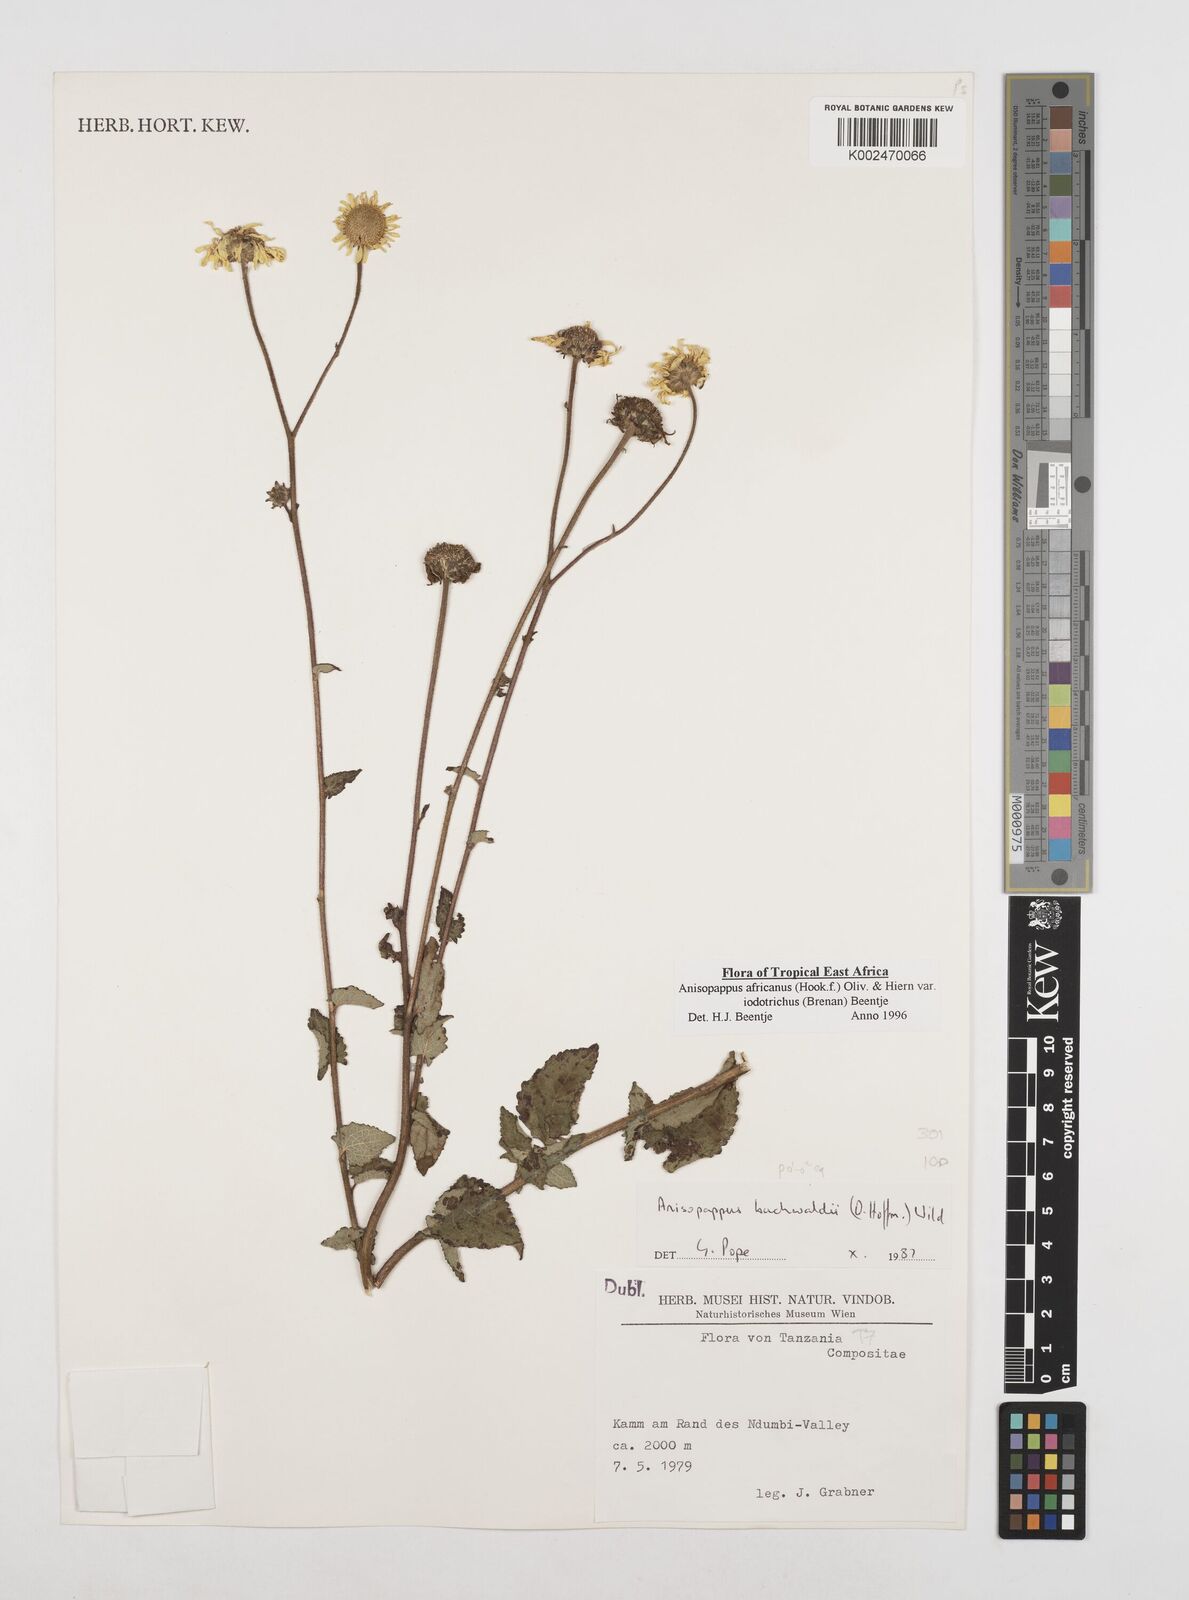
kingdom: Plantae
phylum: Tracheophyta
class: Magnoliopsida
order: Asterales
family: Asteraceae
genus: Anisopappus
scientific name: Anisopappus buchwaldii
